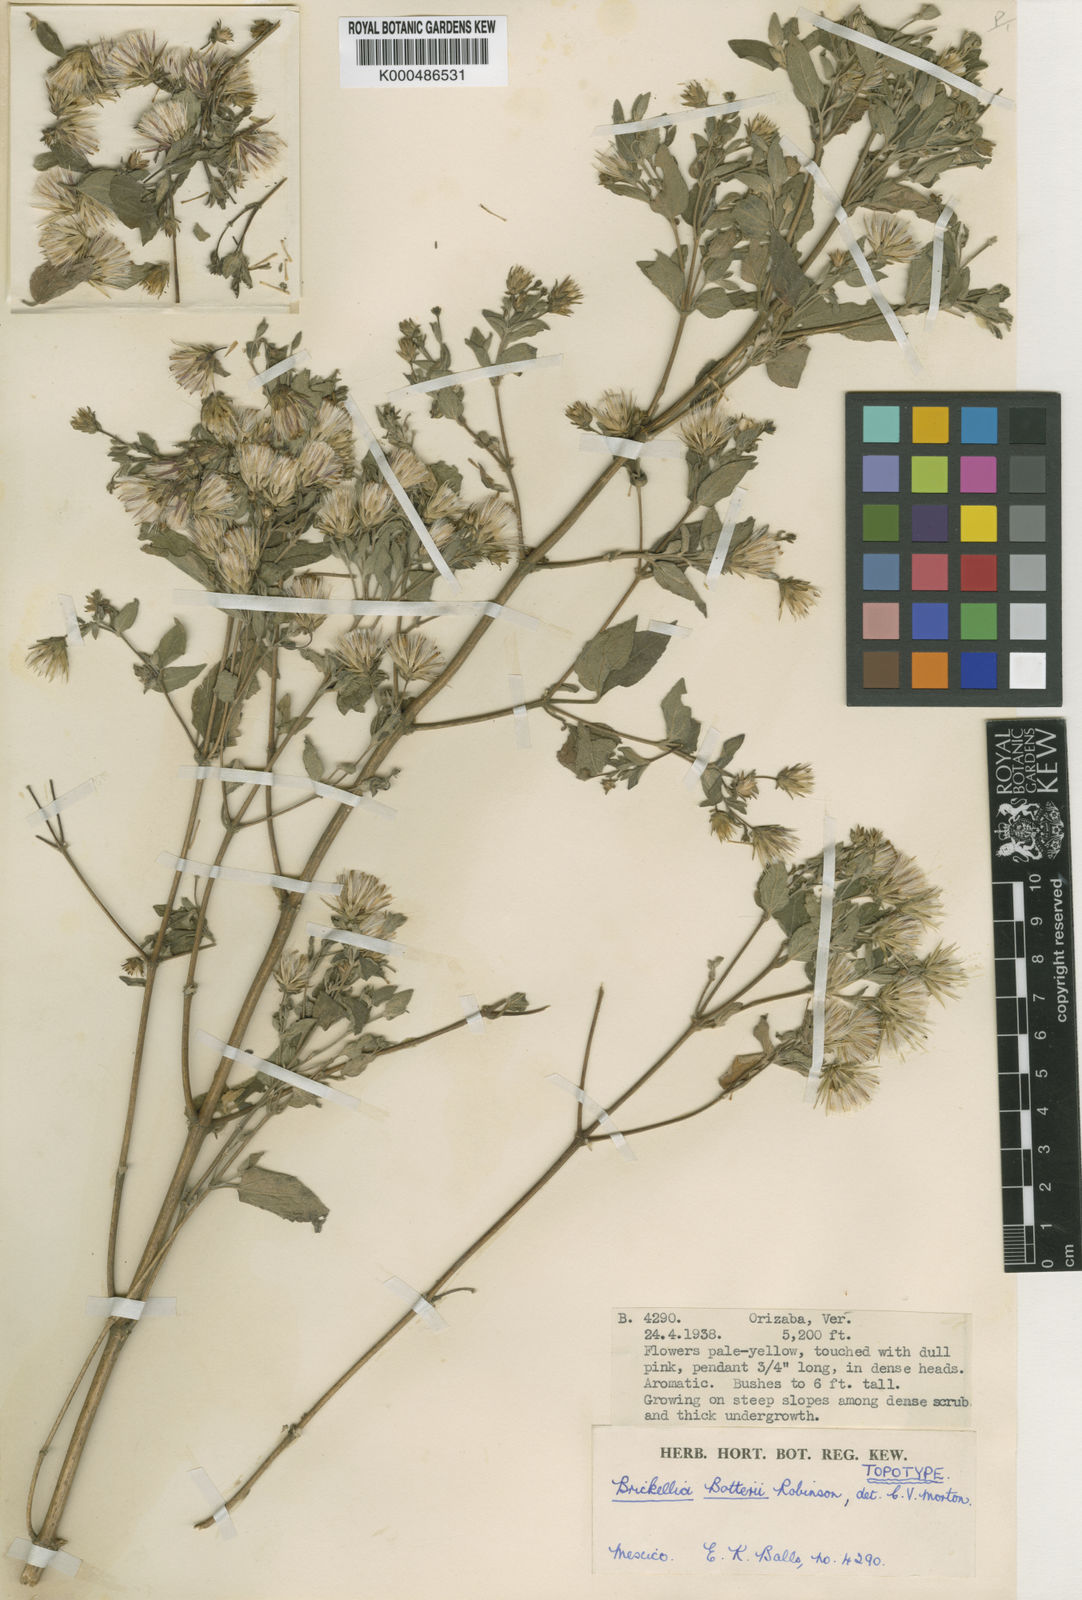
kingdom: Plantae
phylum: Tracheophyta
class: Magnoliopsida
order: Asterales
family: Asteraceae
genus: Brickellia
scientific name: Brickellia cavanillesii
